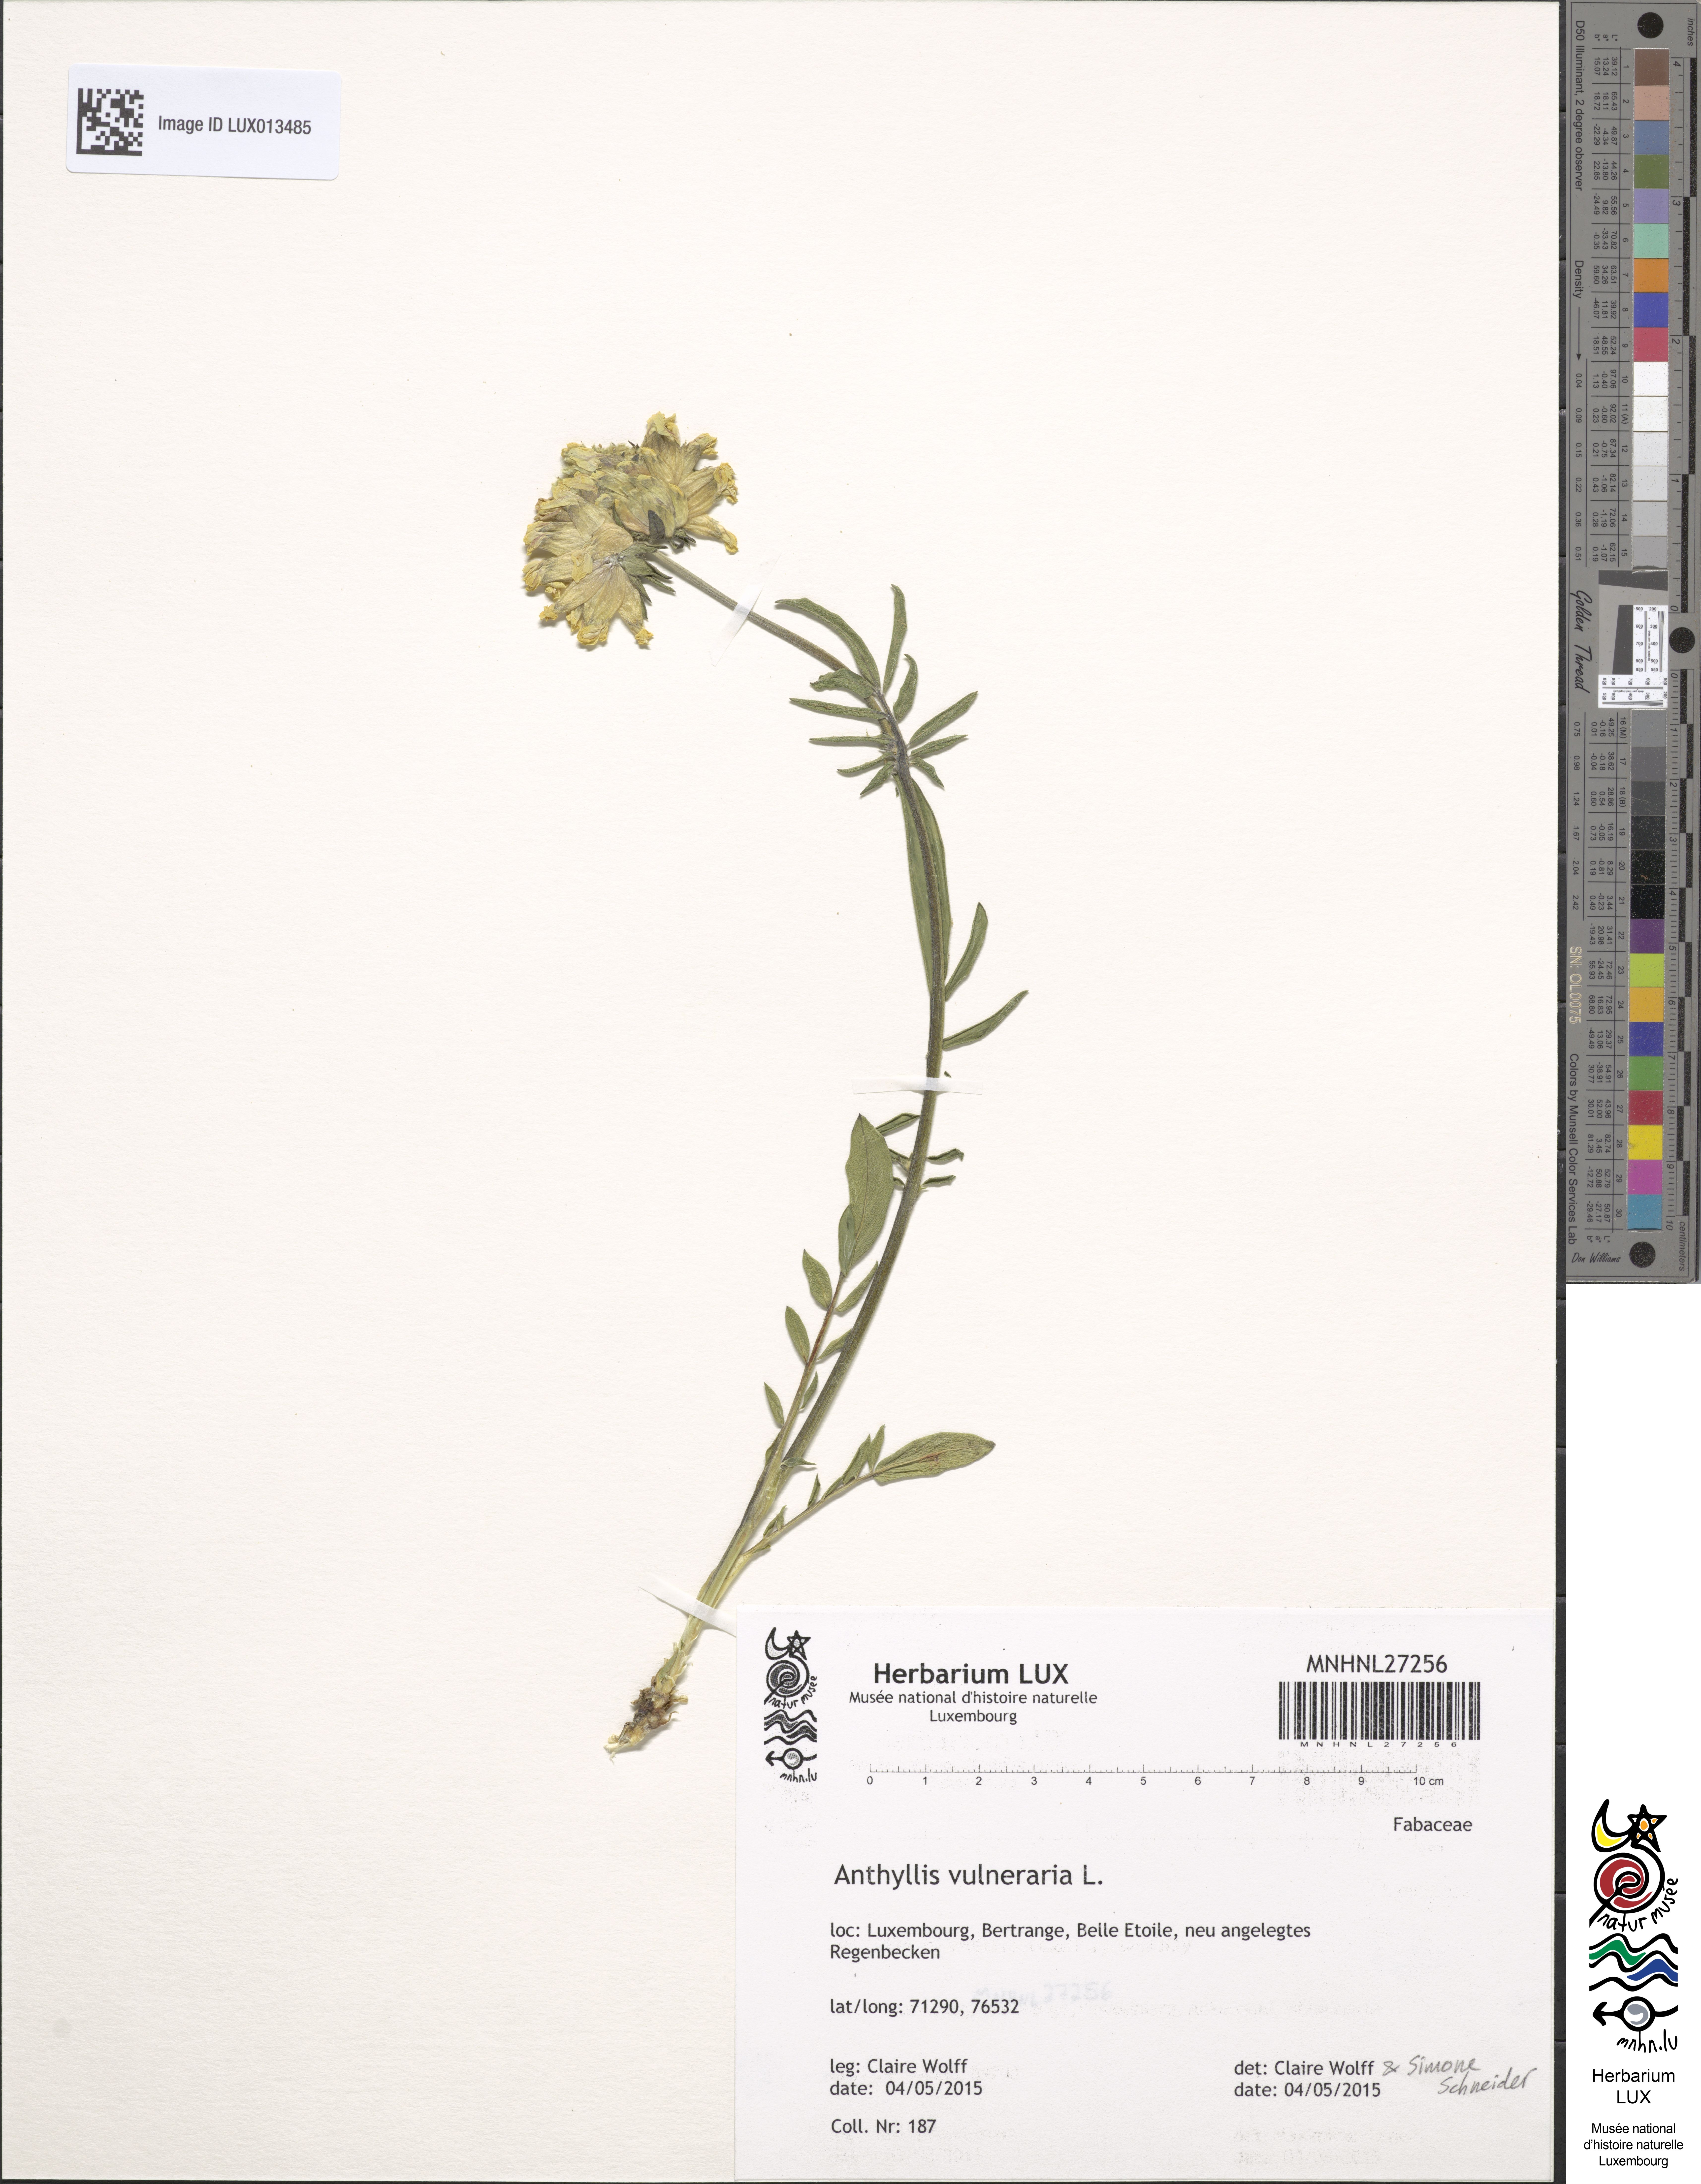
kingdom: Plantae
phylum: Tracheophyta
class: Magnoliopsida
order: Fabales
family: Fabaceae
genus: Anthyllis
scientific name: Anthyllis vulneraria
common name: Kidney vetch
